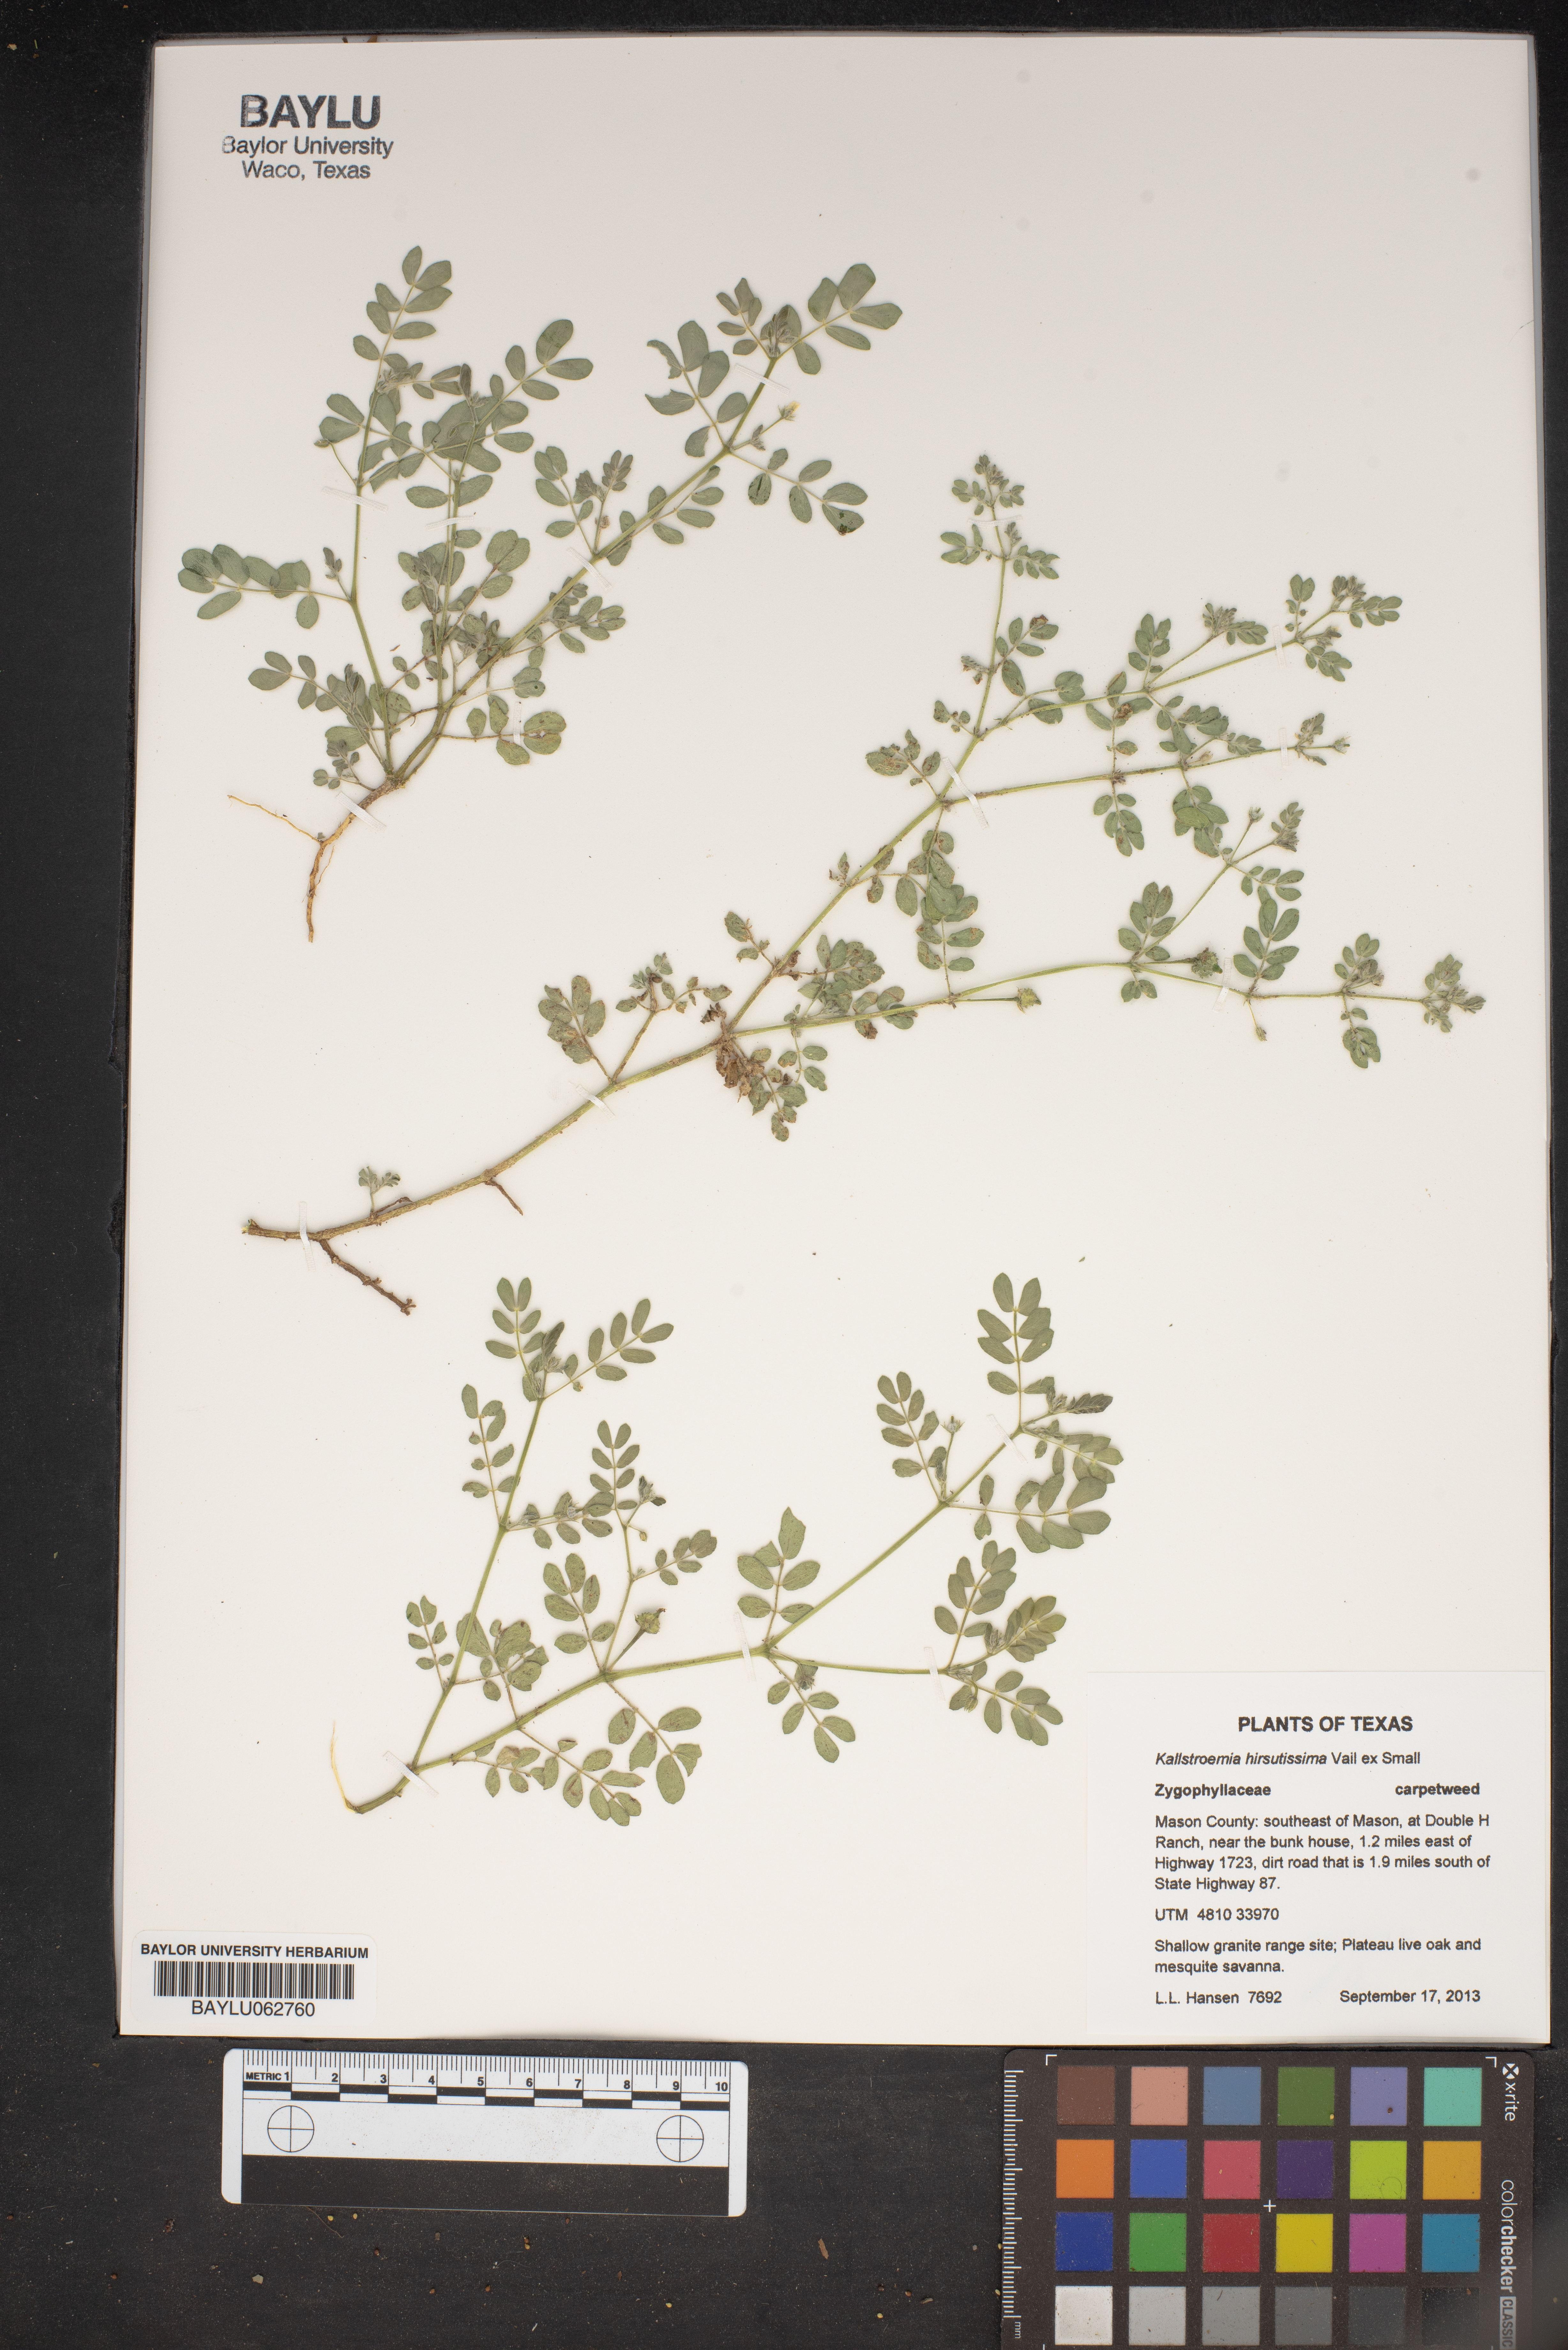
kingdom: Plantae
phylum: Tracheophyta
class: Magnoliopsida
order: Zygophyllales
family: Zygophyllaceae
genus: Kallstroemia
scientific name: Kallstroemia hirsutissima
